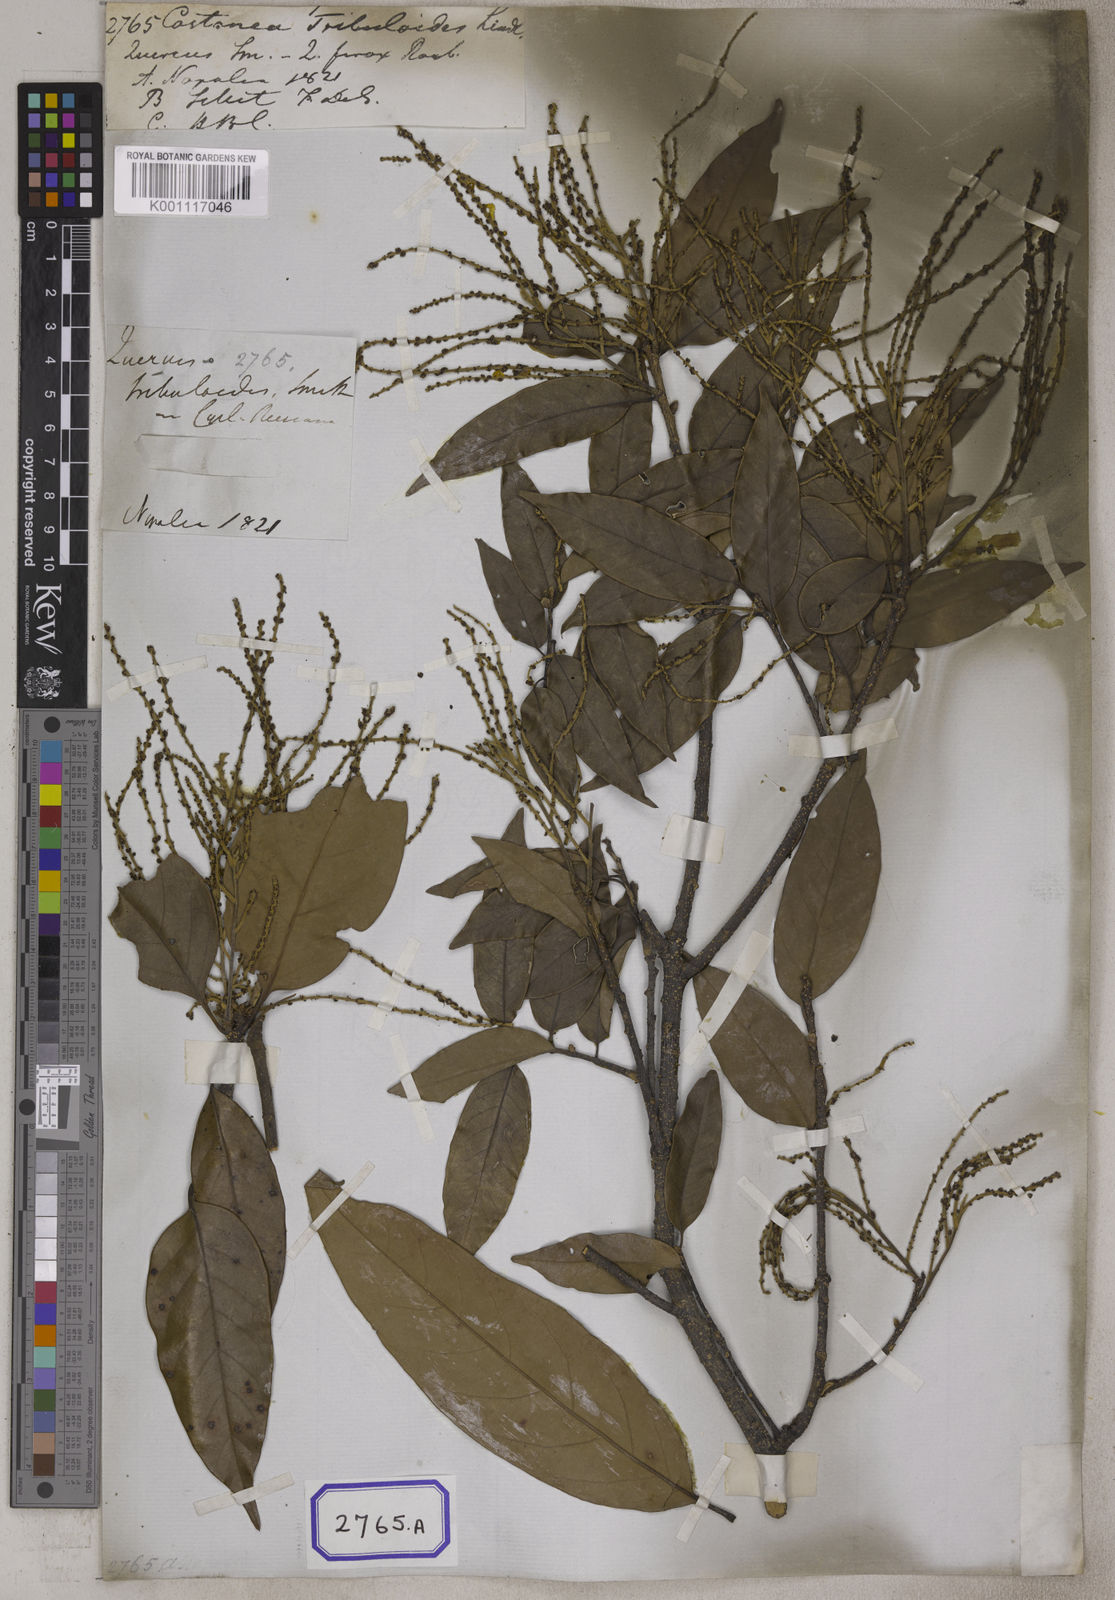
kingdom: Plantae
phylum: Tracheophyta
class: Magnoliopsida
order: Fagales
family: Fagaceae
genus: Castanopsis
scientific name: Castanopsis tribuloides
